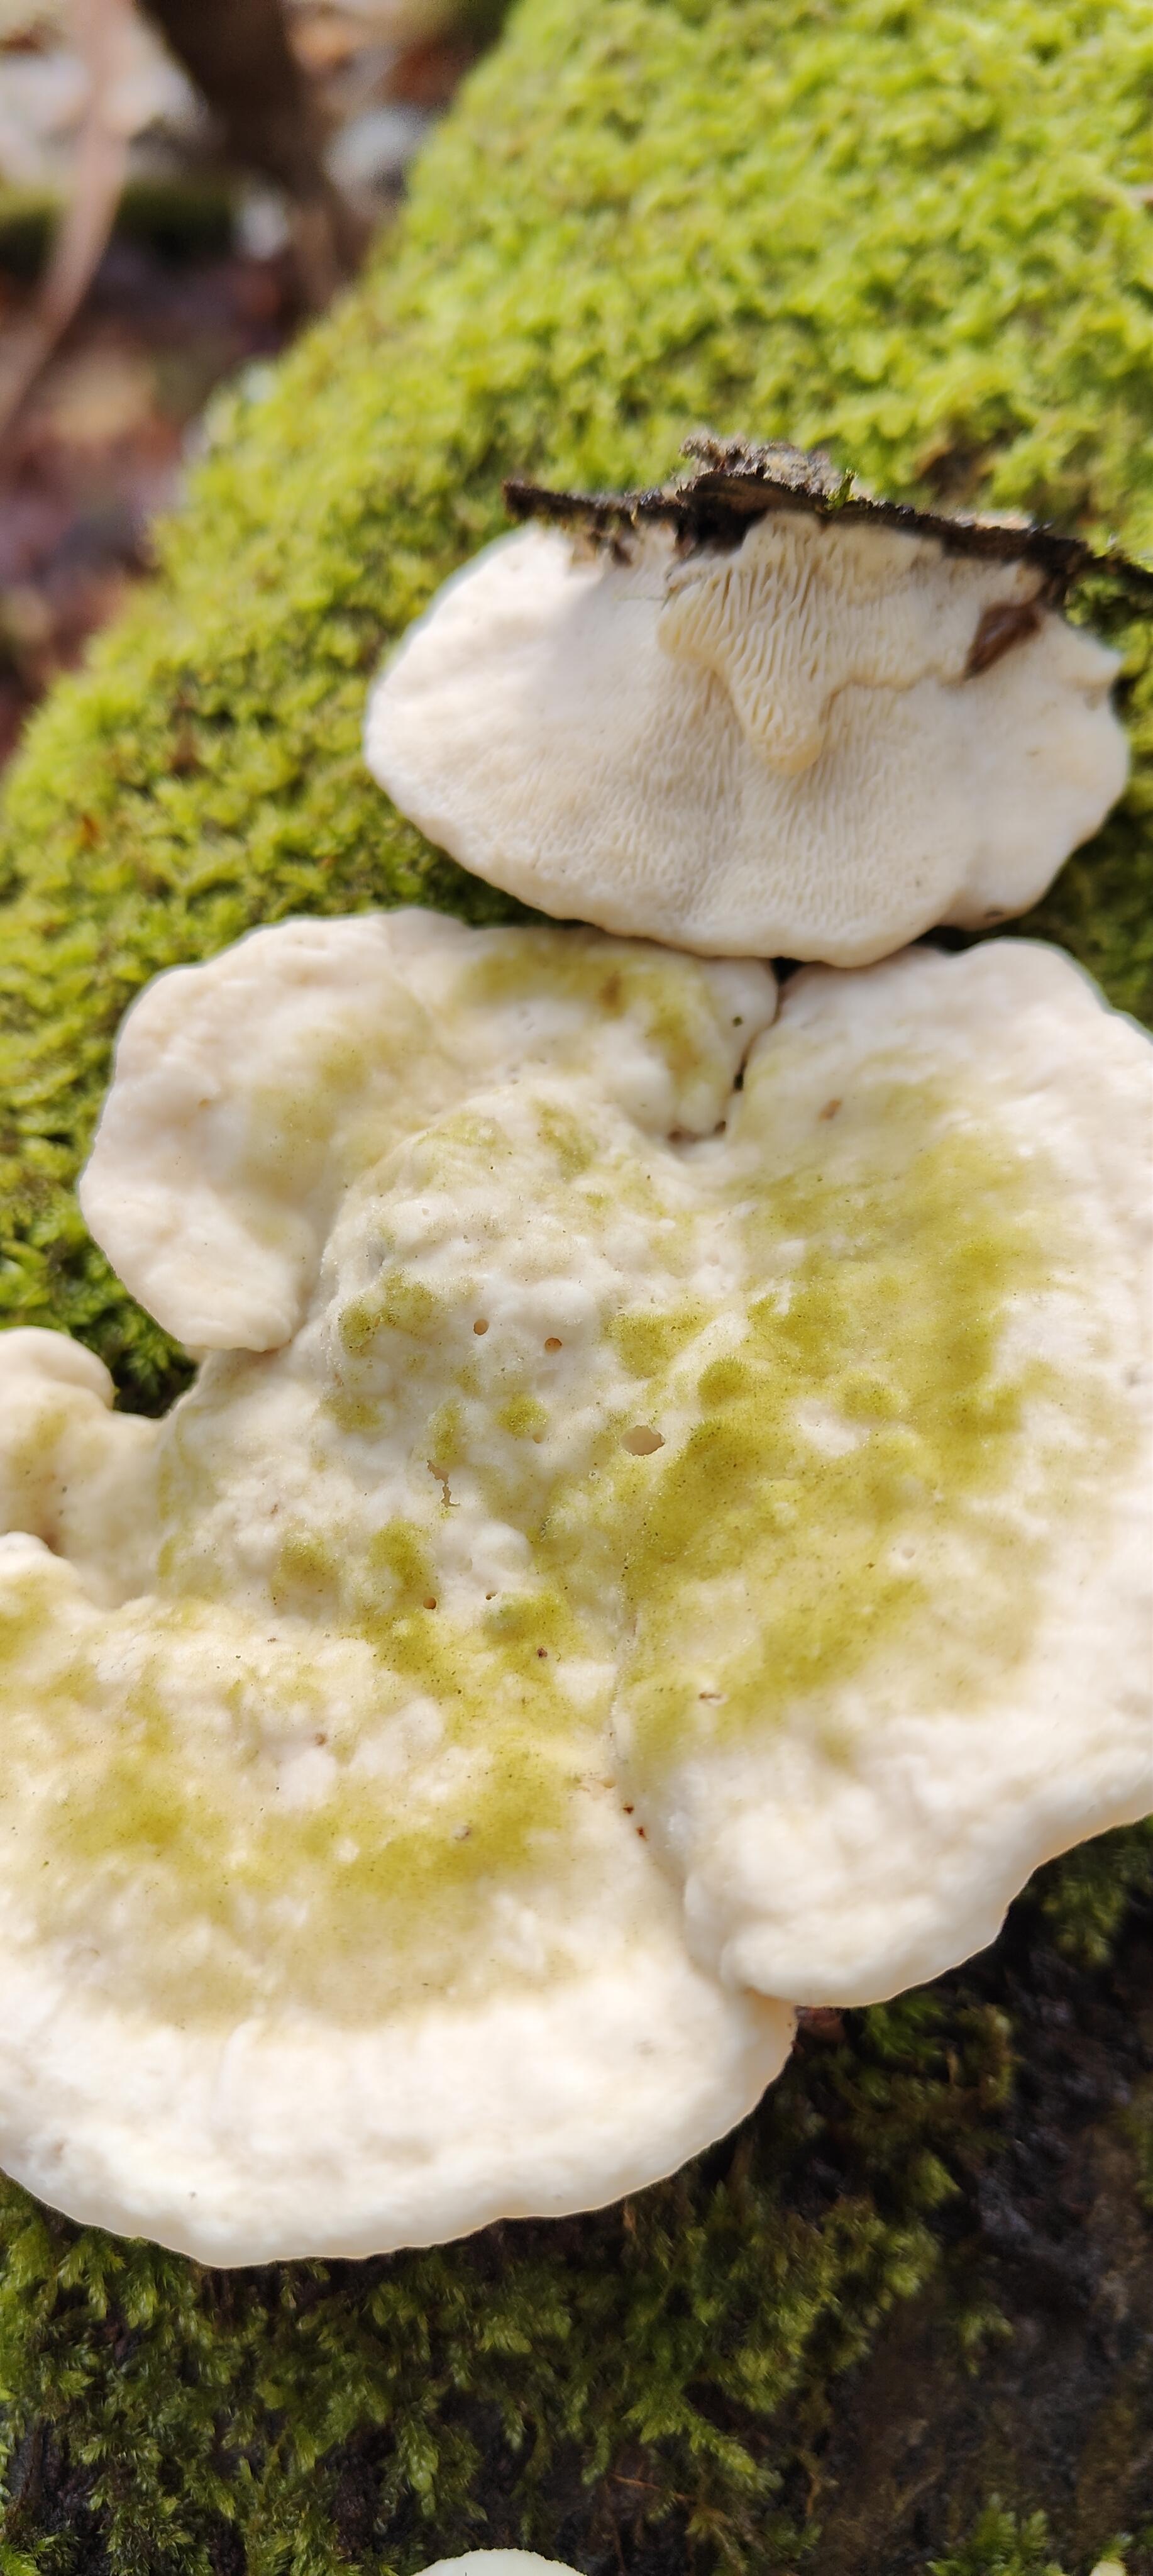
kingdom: Fungi
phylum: Basidiomycota
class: Agaricomycetes
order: Polyporales
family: Polyporaceae
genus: Trametes
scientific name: Trametes gibbosa
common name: puklet læderporesvamp
